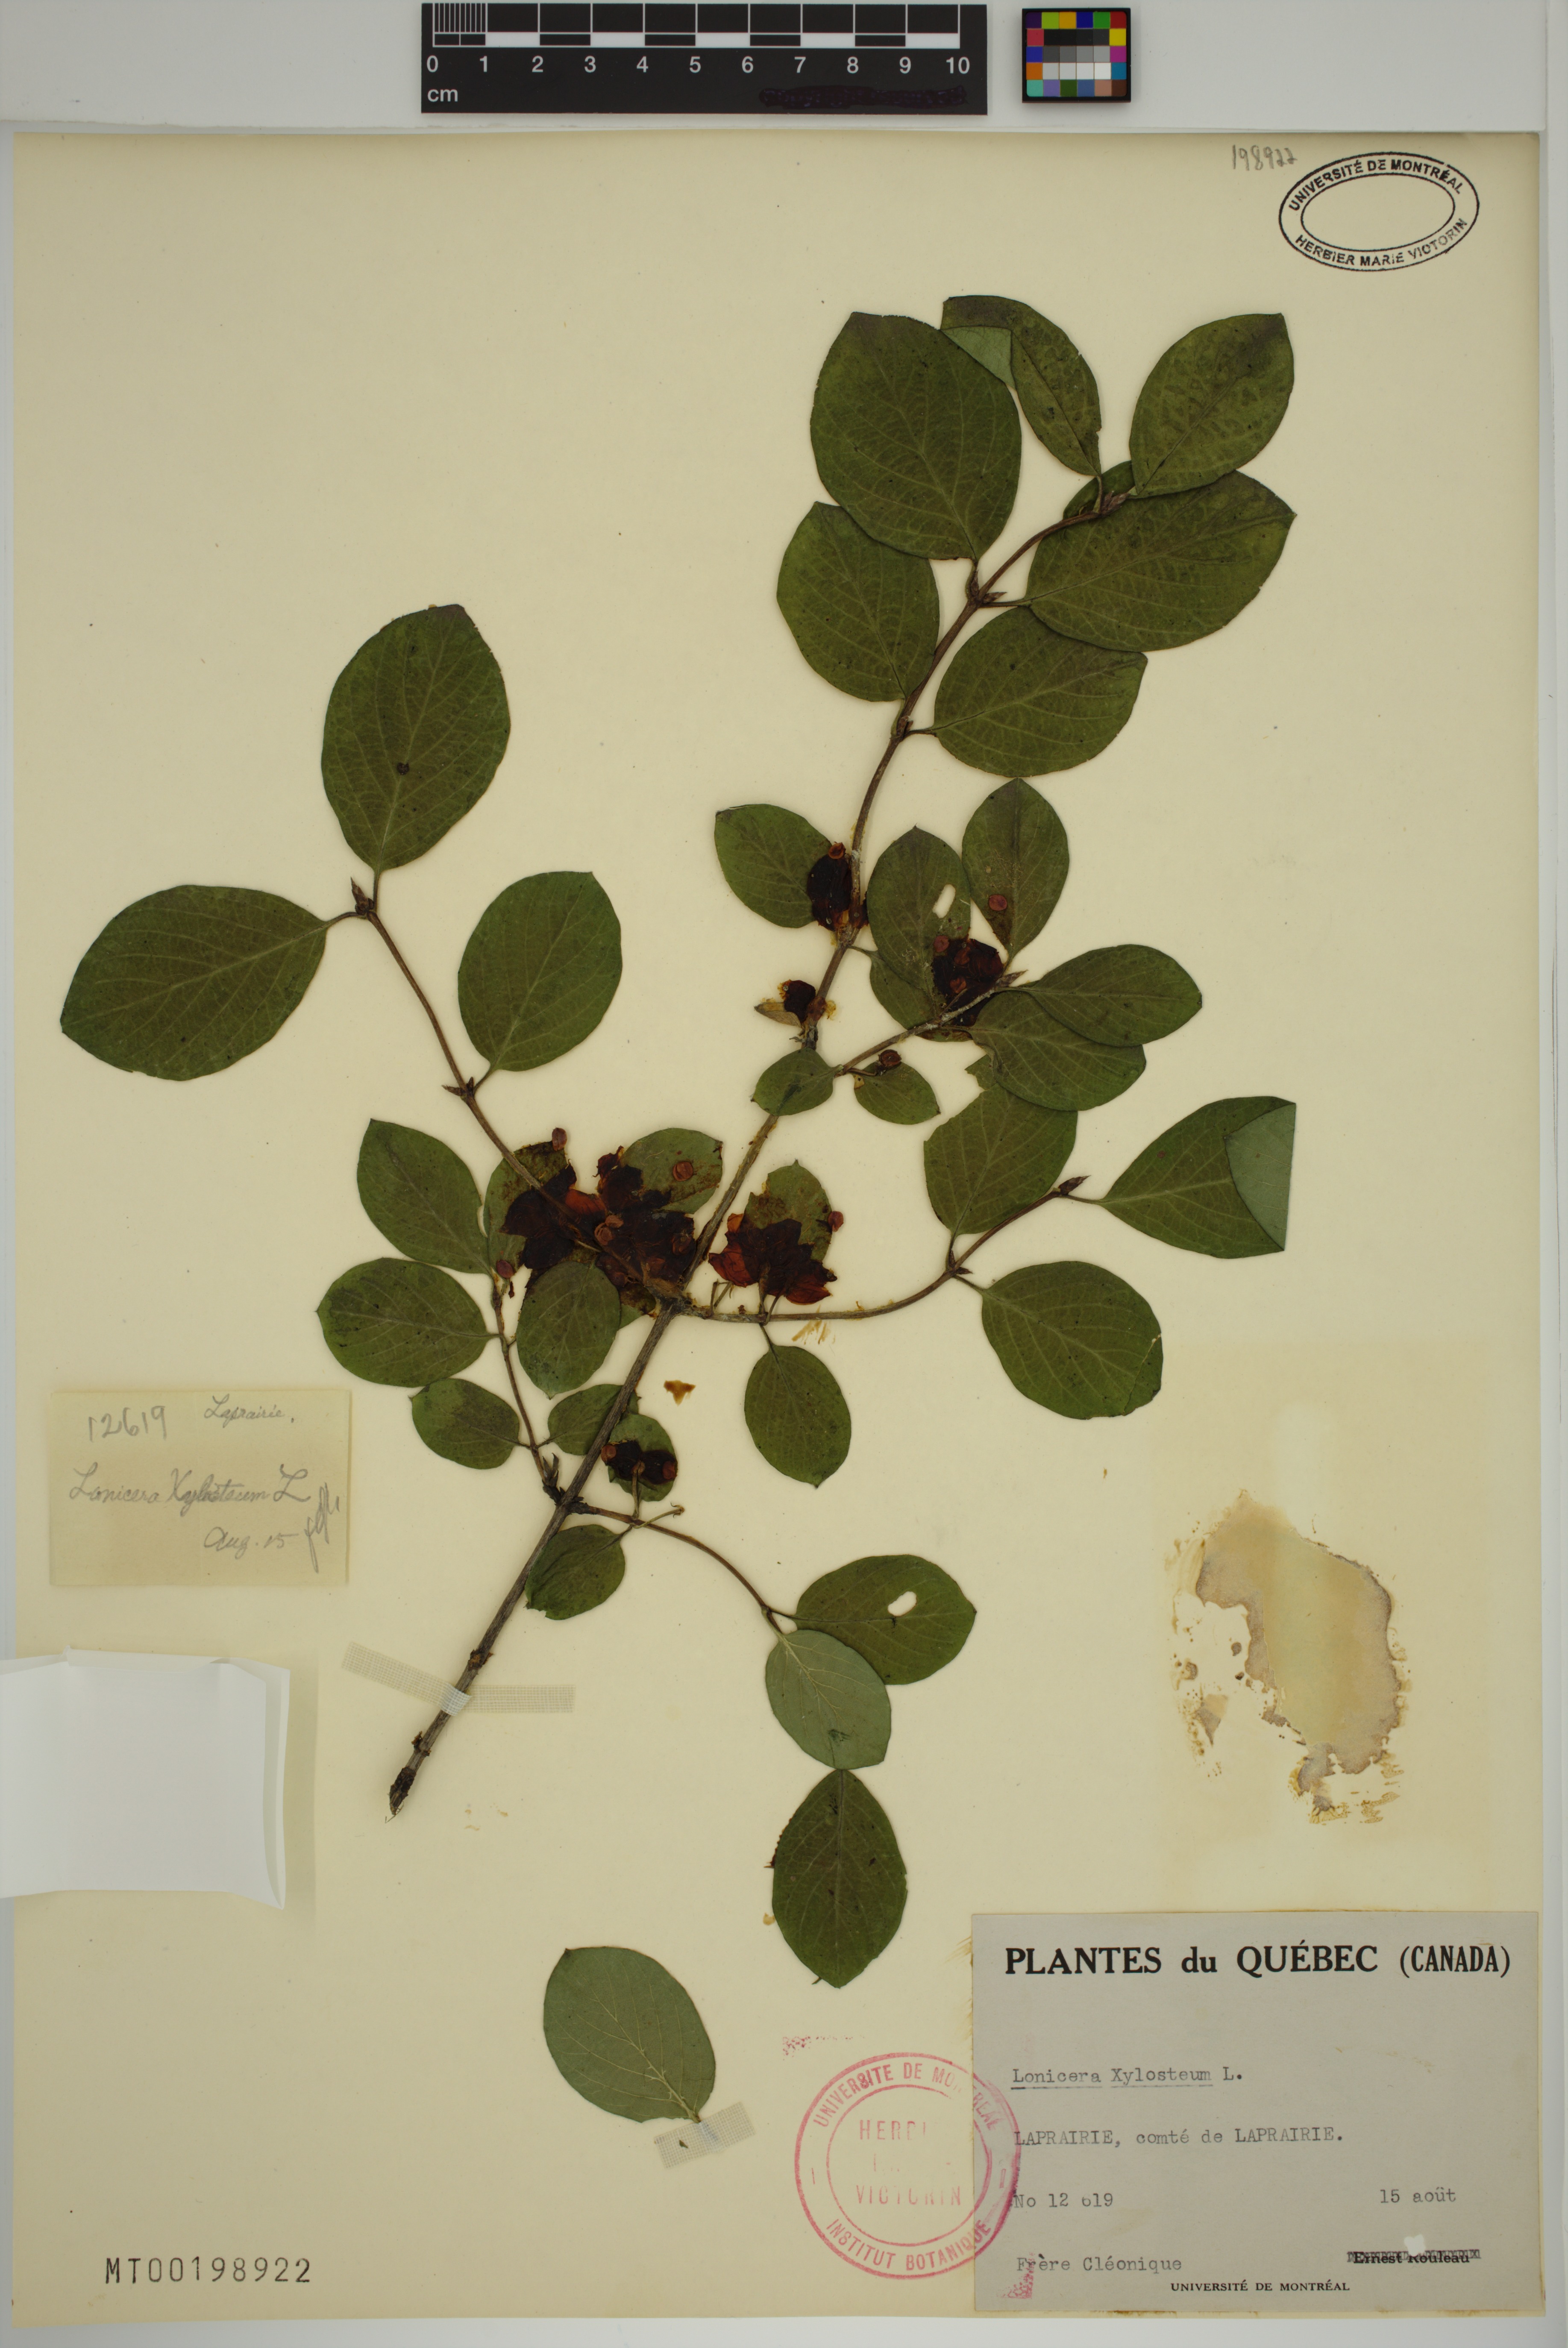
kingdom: Plantae
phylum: Tracheophyta
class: Magnoliopsida
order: Dipsacales
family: Caprifoliaceae
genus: Lonicera
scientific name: Lonicera tatarica
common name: Tatarian honeysuckle
